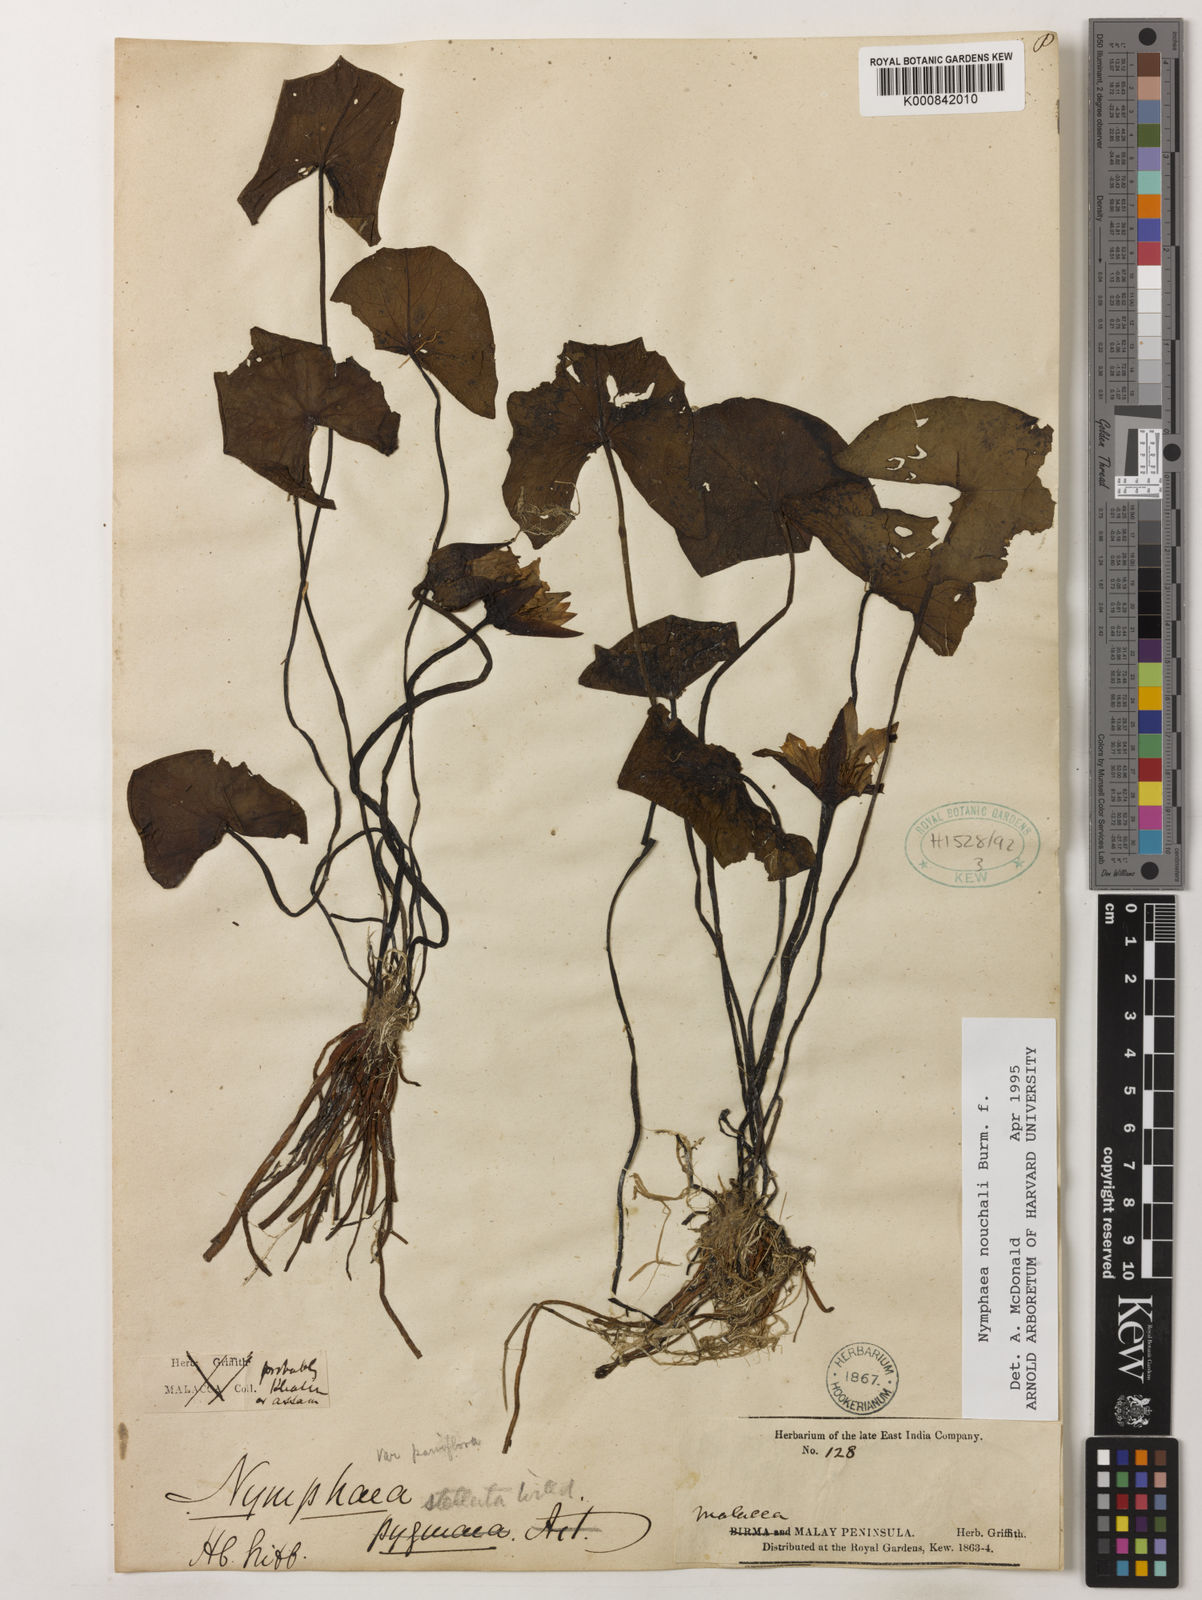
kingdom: Plantae
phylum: Tracheophyta
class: Magnoliopsida
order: Nymphaeales
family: Nymphaeaceae
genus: Nymphaea
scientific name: Nymphaea nouchali
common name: Blue lotus
